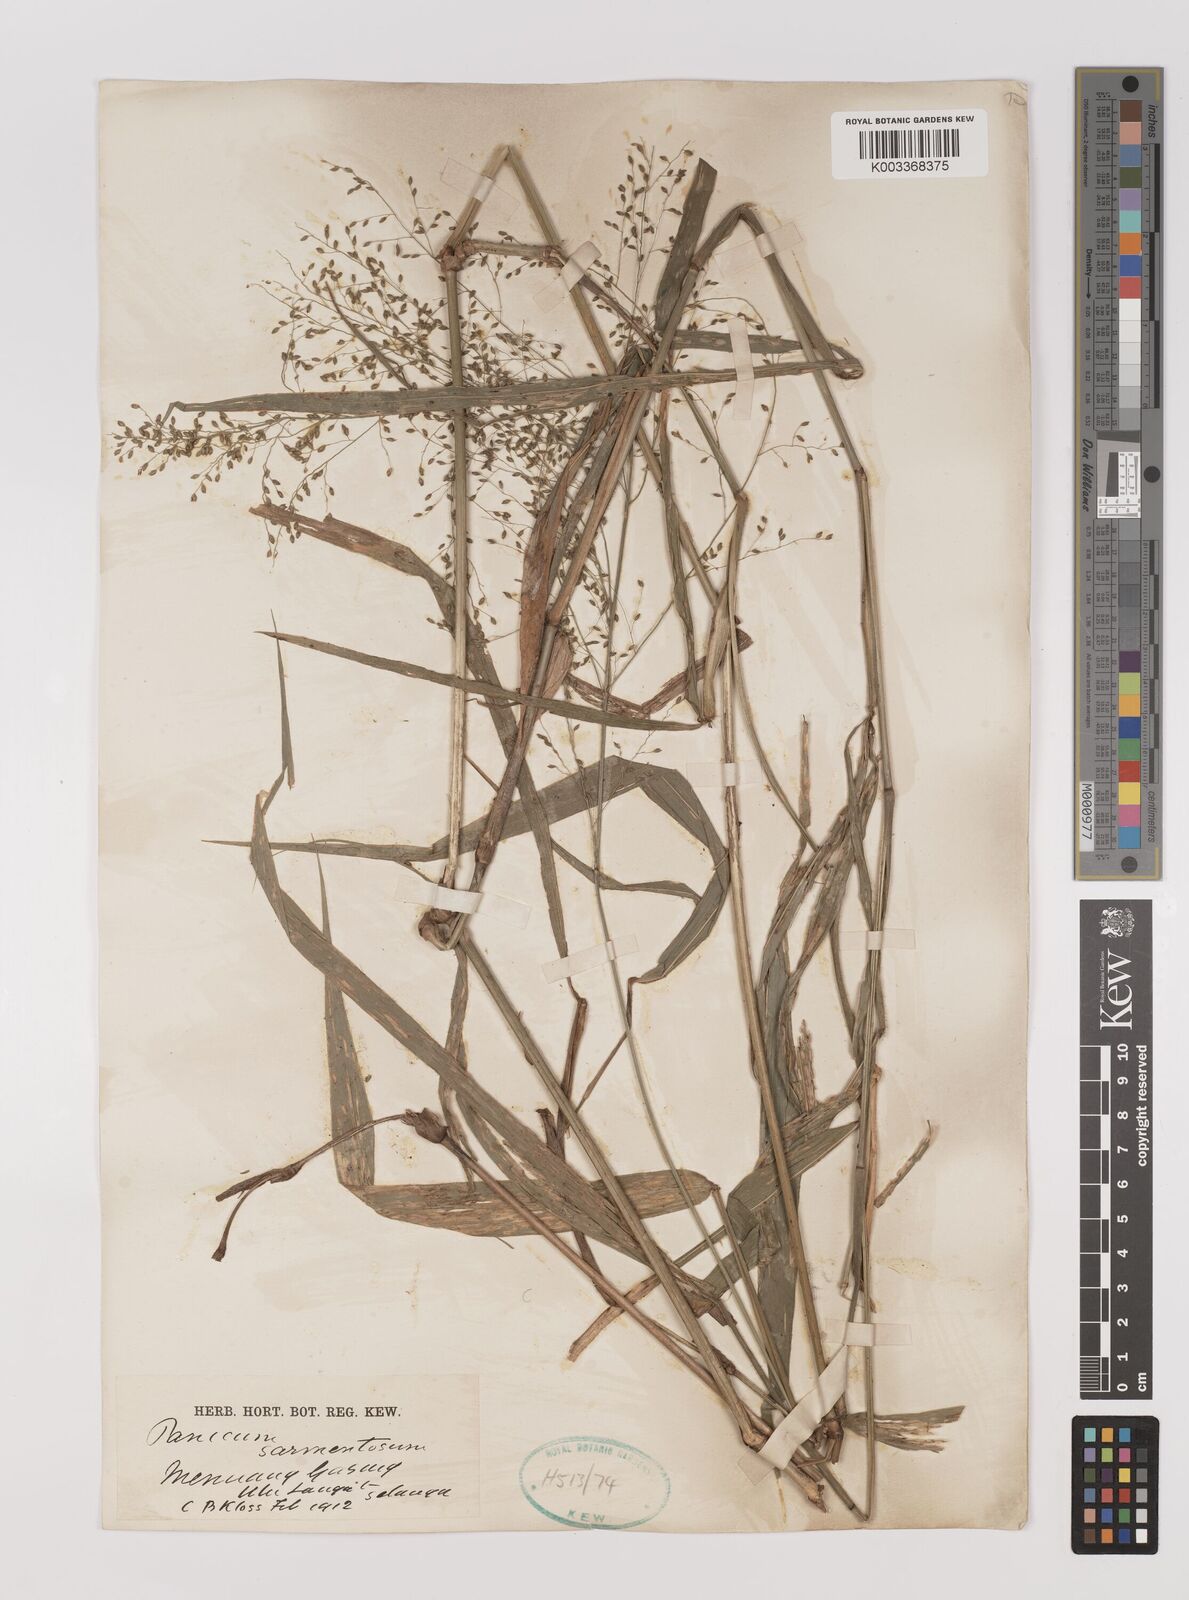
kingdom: Plantae
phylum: Tracheophyta
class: Liliopsida
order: Poales
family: Poaceae
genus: Panicum
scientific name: Panicum sarmentosum
